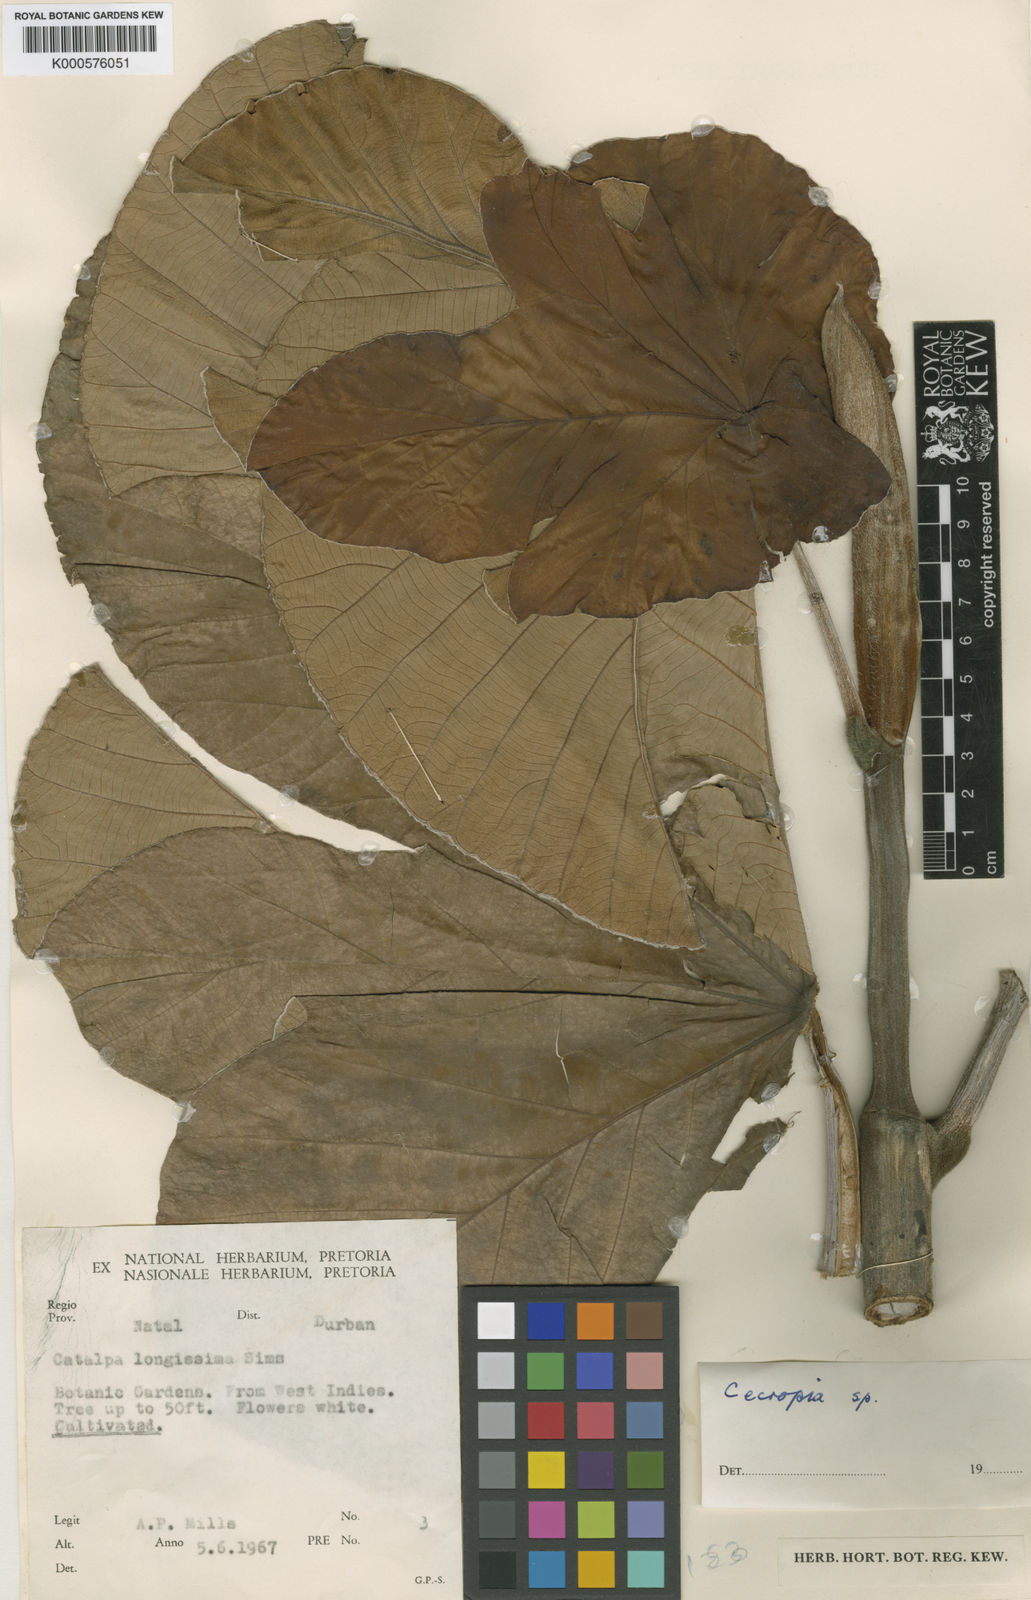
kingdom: Plantae
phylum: Tracheophyta
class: Magnoliopsida
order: Rosales
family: Urticaceae
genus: Cecropia
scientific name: Cecropia
